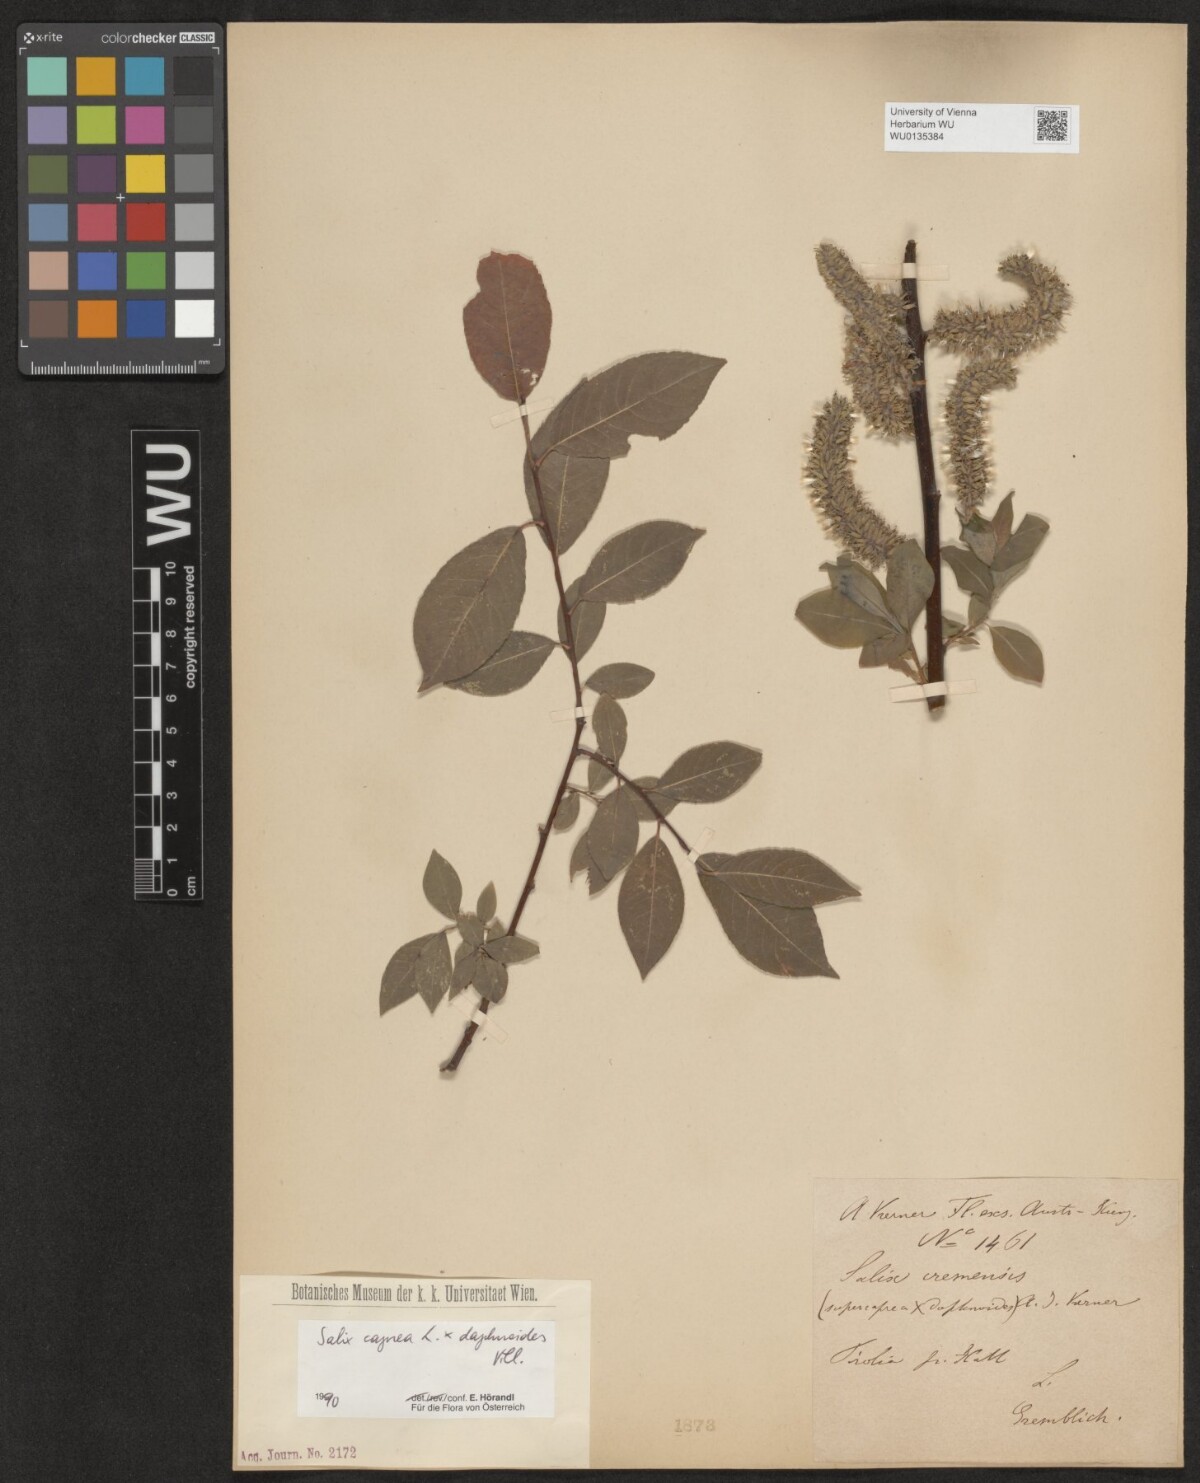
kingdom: Plantae
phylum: Tracheophyta
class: Magnoliopsida
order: Malpighiales
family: Salicaceae
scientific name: Salicaceae
